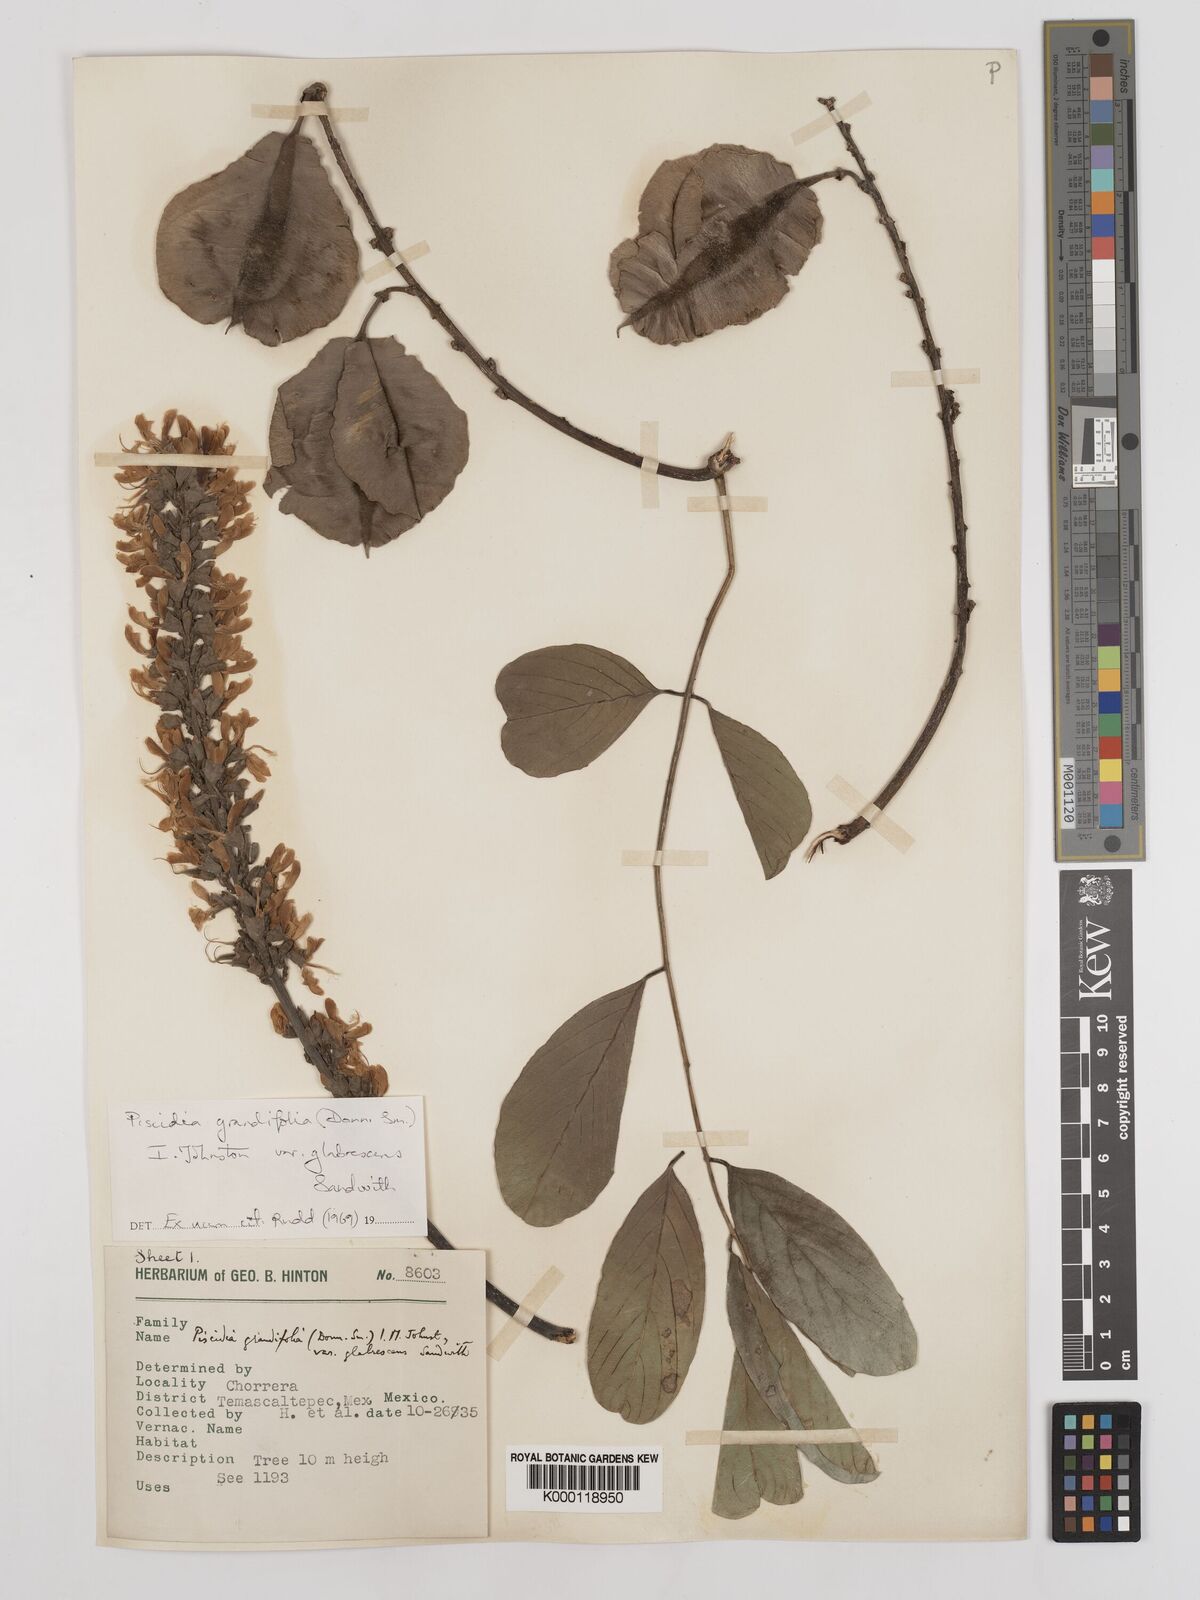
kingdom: Plantae
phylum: Tracheophyta
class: Magnoliopsida
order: Fabales
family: Fabaceae
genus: Piscidia
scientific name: Piscidia grandifolia
